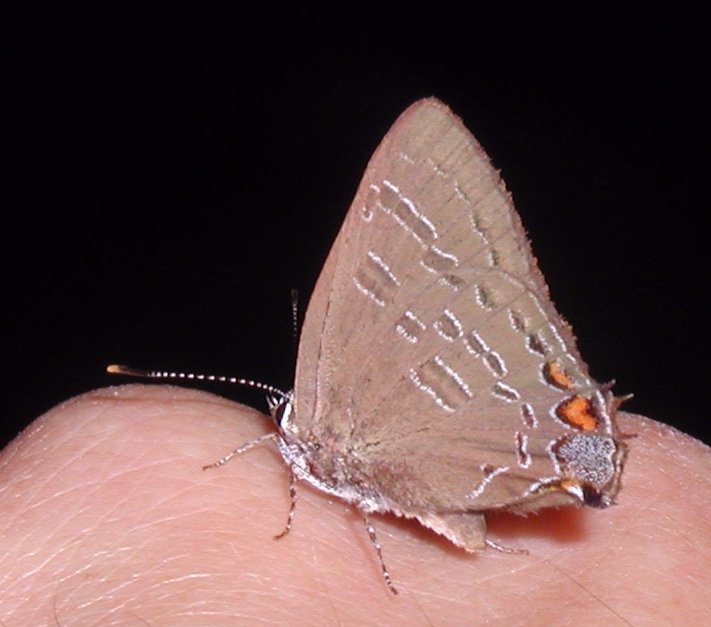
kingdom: Animalia
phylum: Arthropoda
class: Insecta
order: Lepidoptera
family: Lycaenidae
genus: Satyrium
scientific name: Satyrium calanus
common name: Banded Hairstreak
